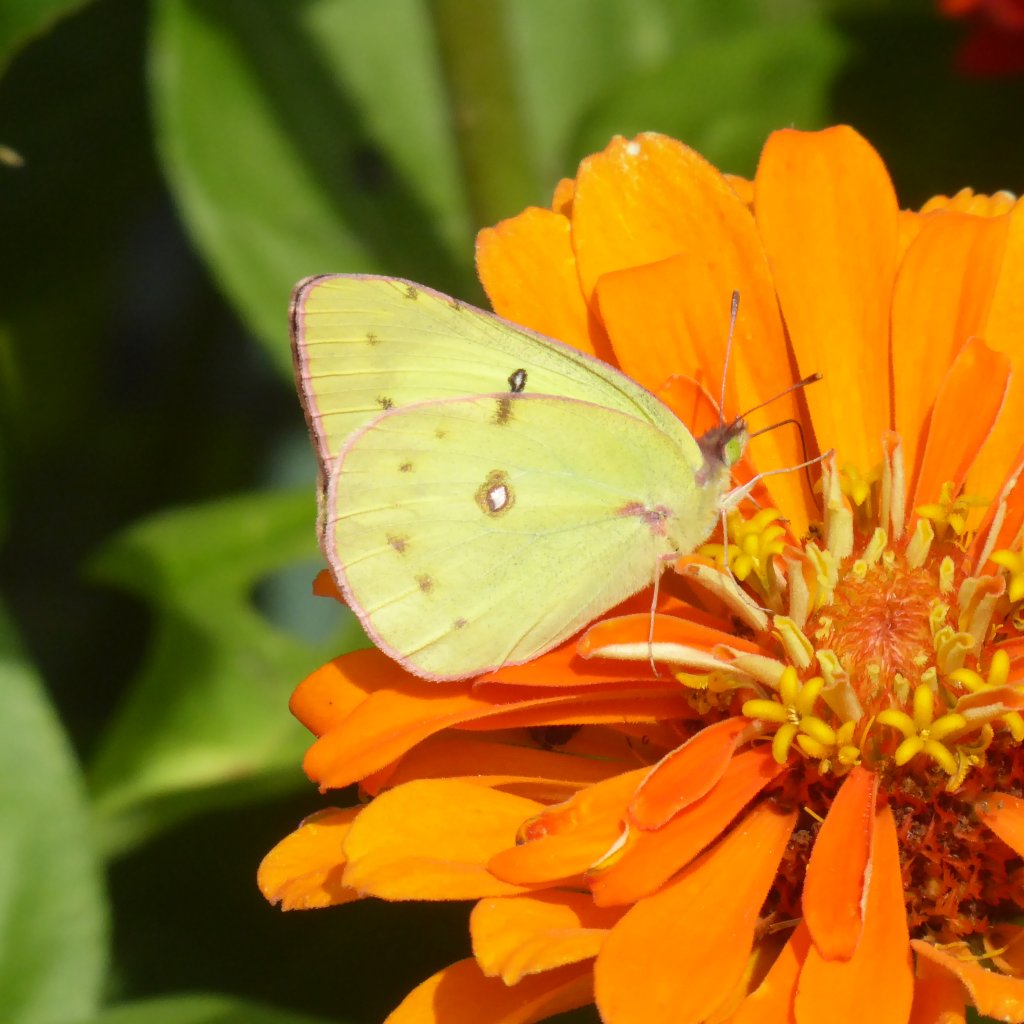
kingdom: Animalia
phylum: Arthropoda
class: Insecta
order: Lepidoptera
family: Pieridae
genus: Colias
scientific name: Colias philodice
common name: Clouded Sulphur
